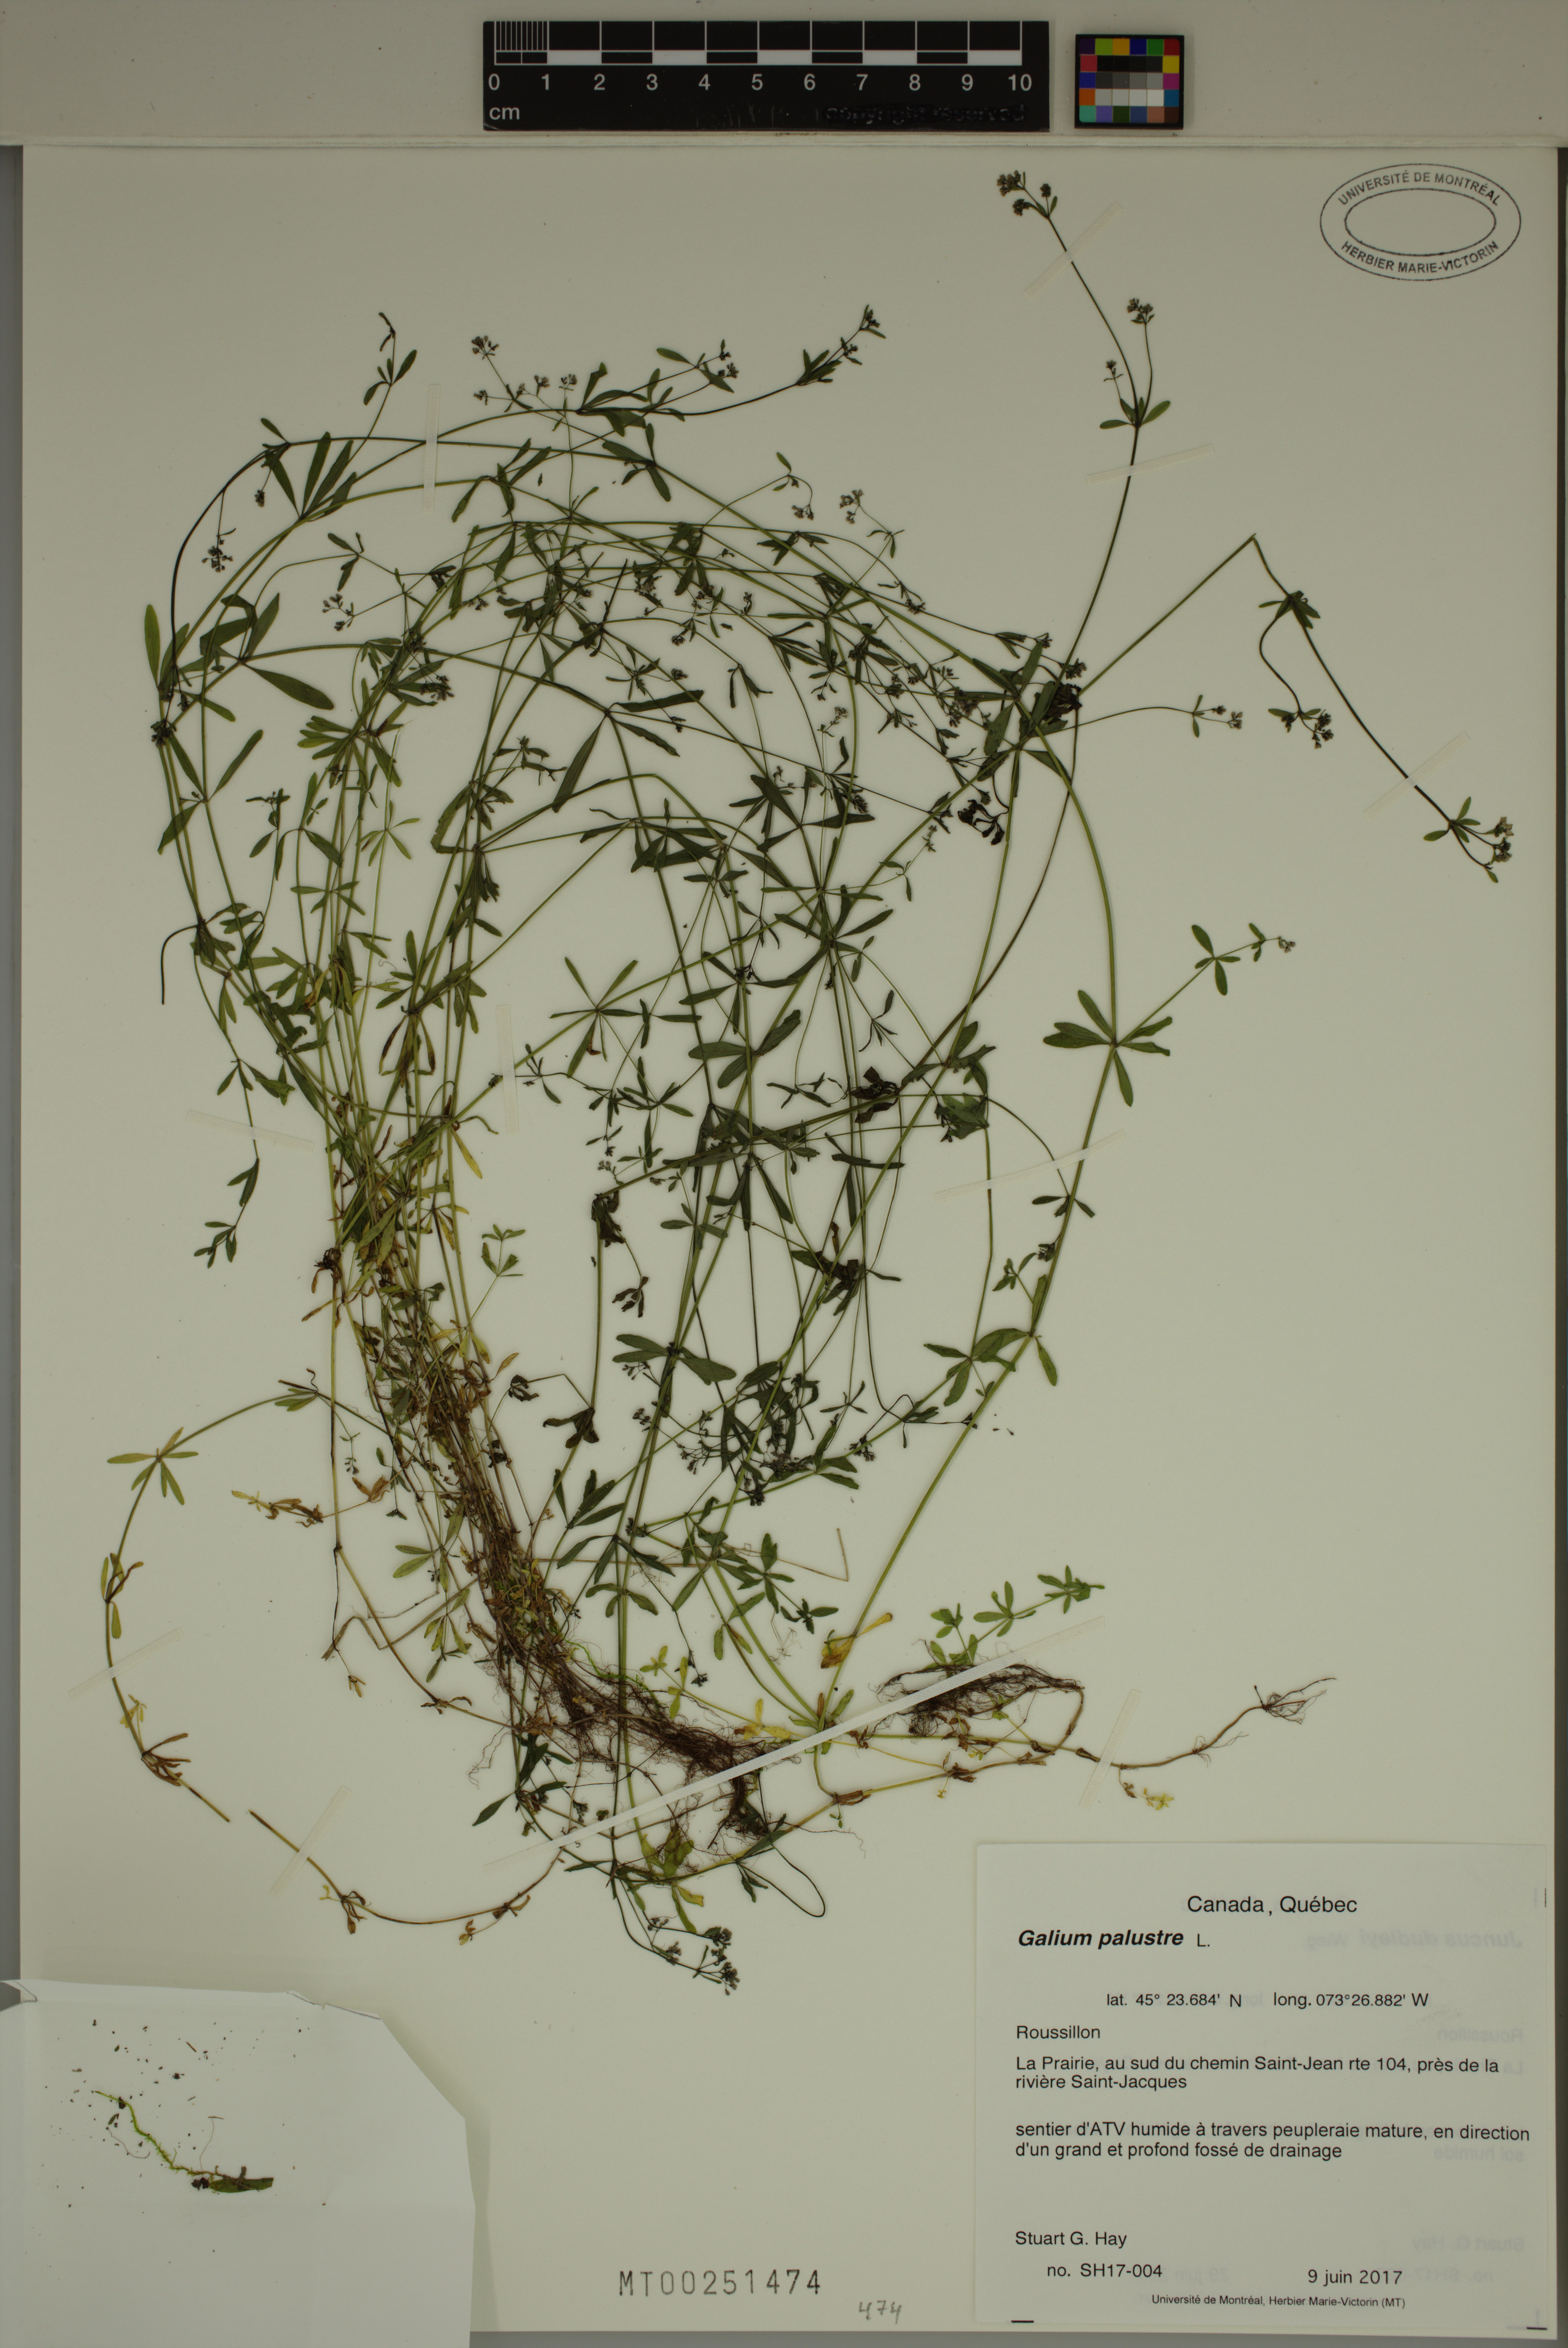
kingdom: Plantae
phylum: Tracheophyta
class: Magnoliopsida
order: Gentianales
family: Rubiaceae
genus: Galium
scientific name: Galium palustre
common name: Common marsh-bedstraw
